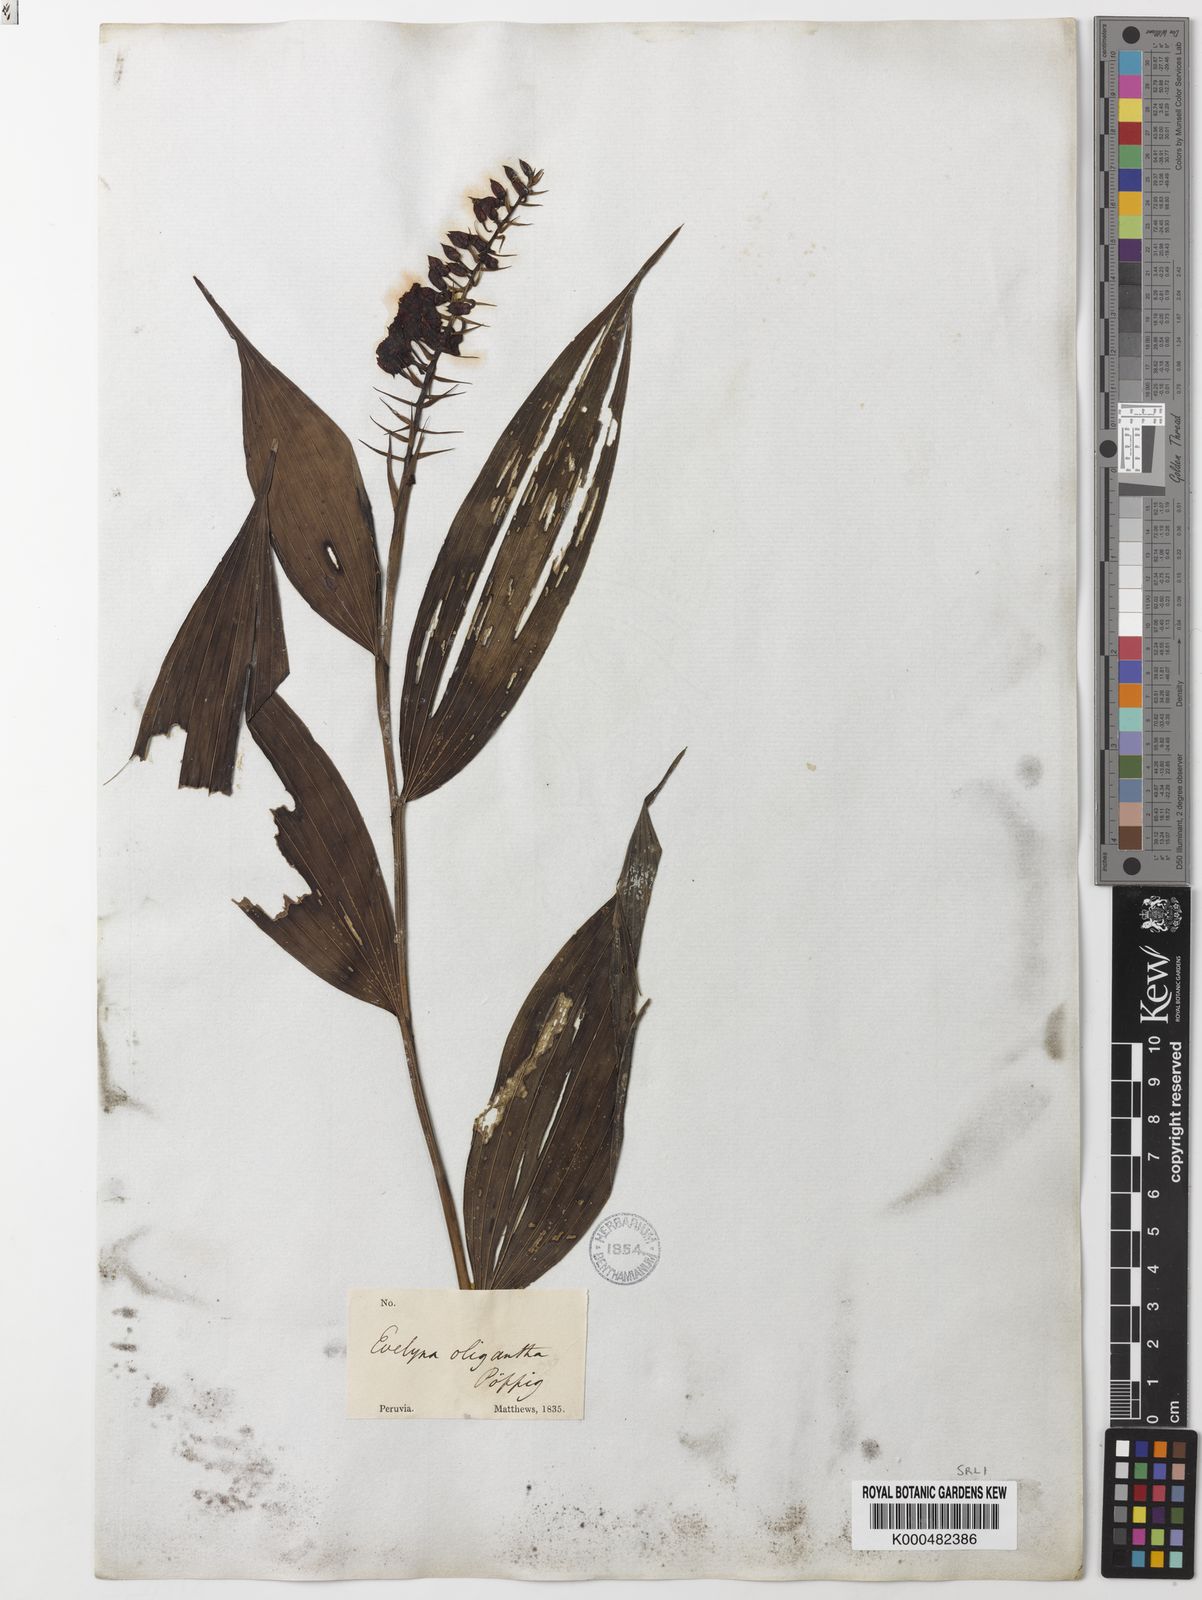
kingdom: Plantae
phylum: Tracheophyta
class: Liliopsida
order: Asparagales
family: Orchidaceae
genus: Elleanthus
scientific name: Elleanthus oliganthus
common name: Sparse blooming elleanthus
